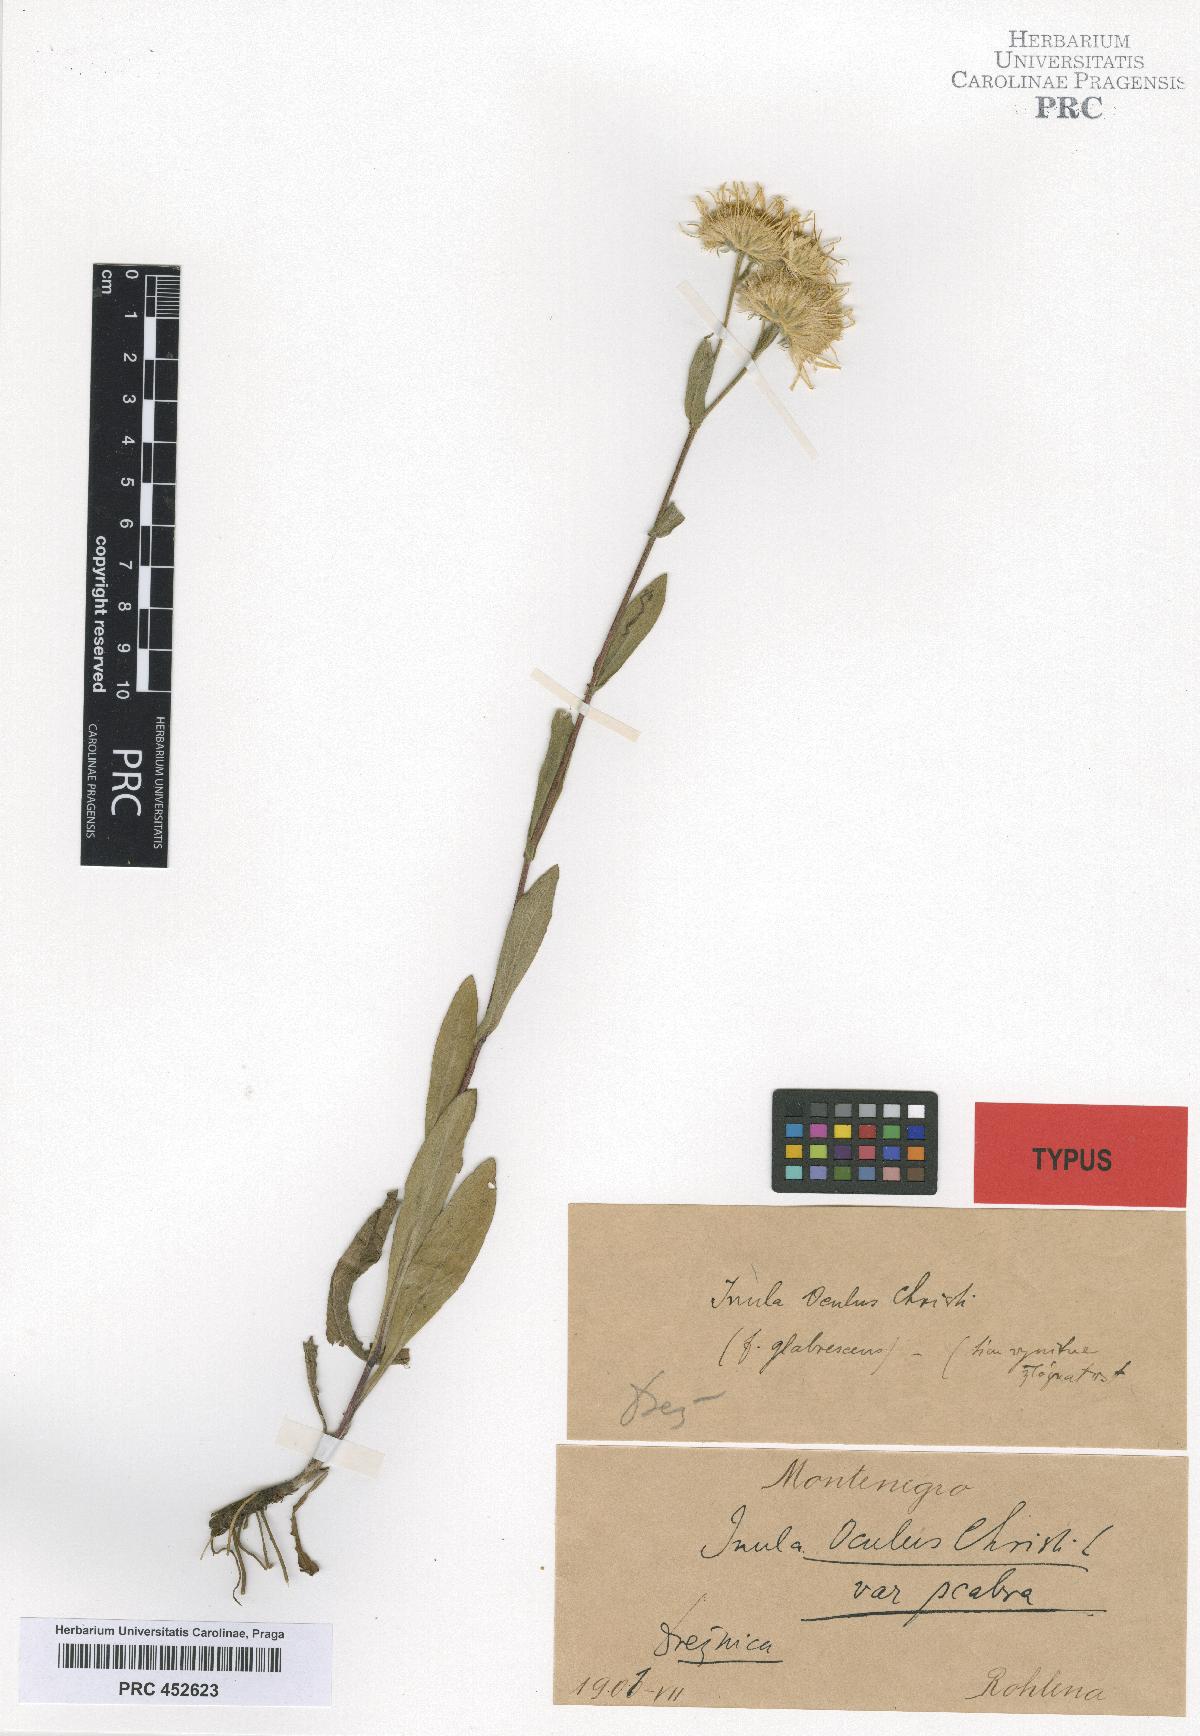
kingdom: Plantae
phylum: Tracheophyta
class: Magnoliopsida
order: Asterales
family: Asteraceae
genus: Inula
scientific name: Inula oculus-christi
